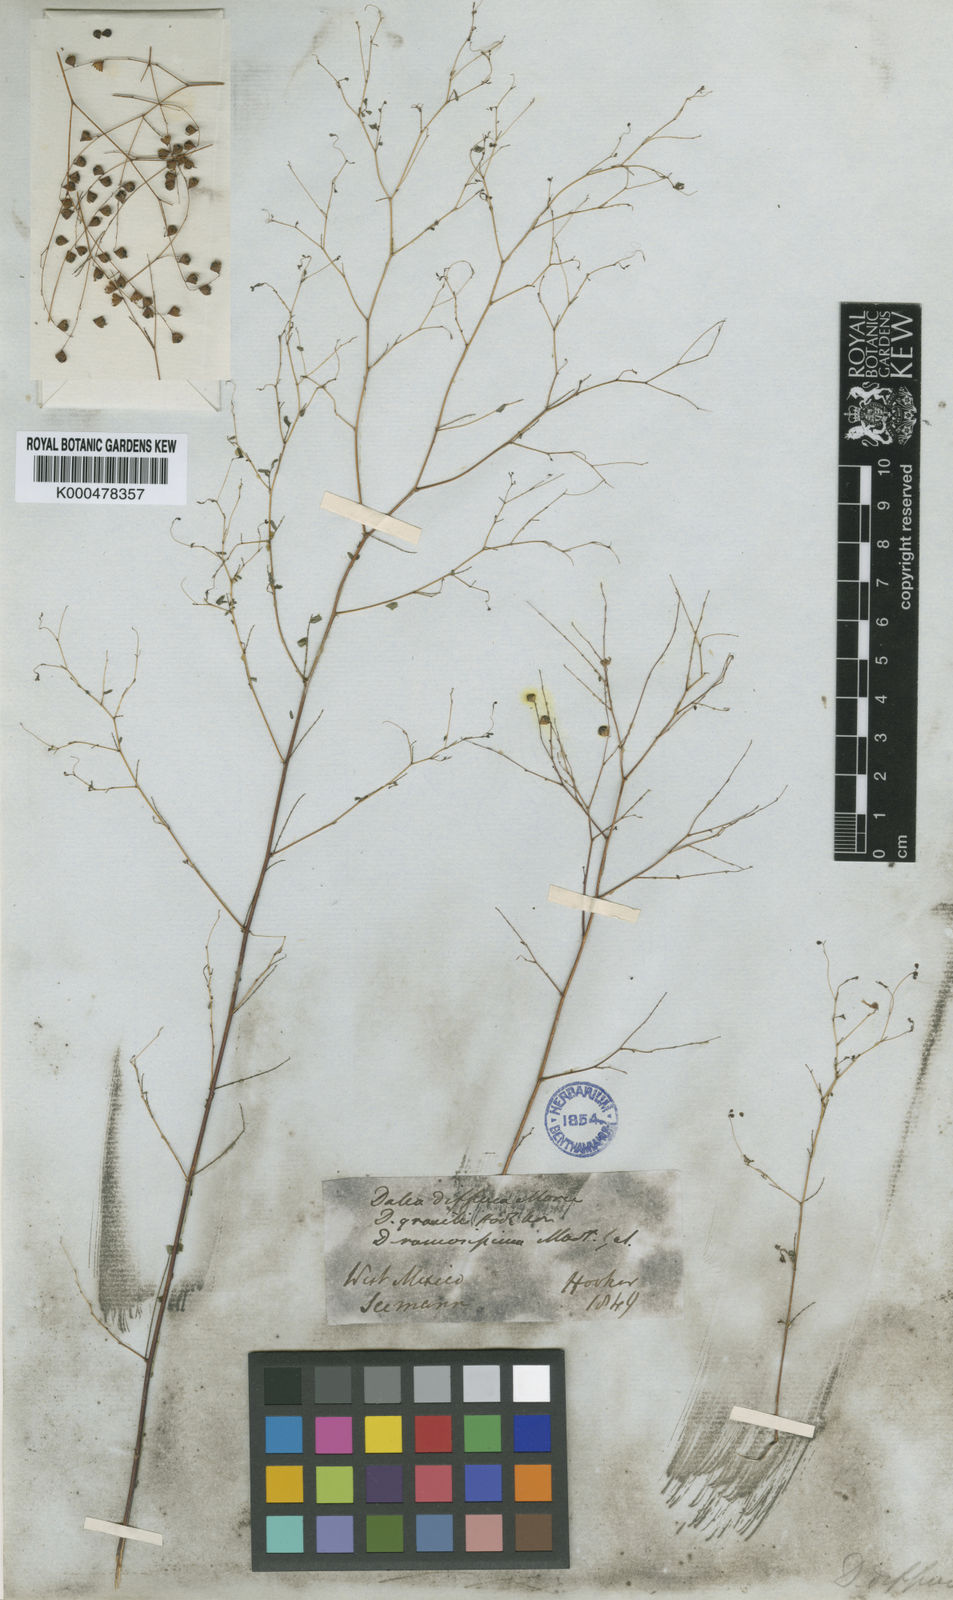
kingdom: Plantae
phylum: Tracheophyta
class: Magnoliopsida
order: Fabales
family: Fabaceae
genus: Marina
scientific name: Marina diffusa
